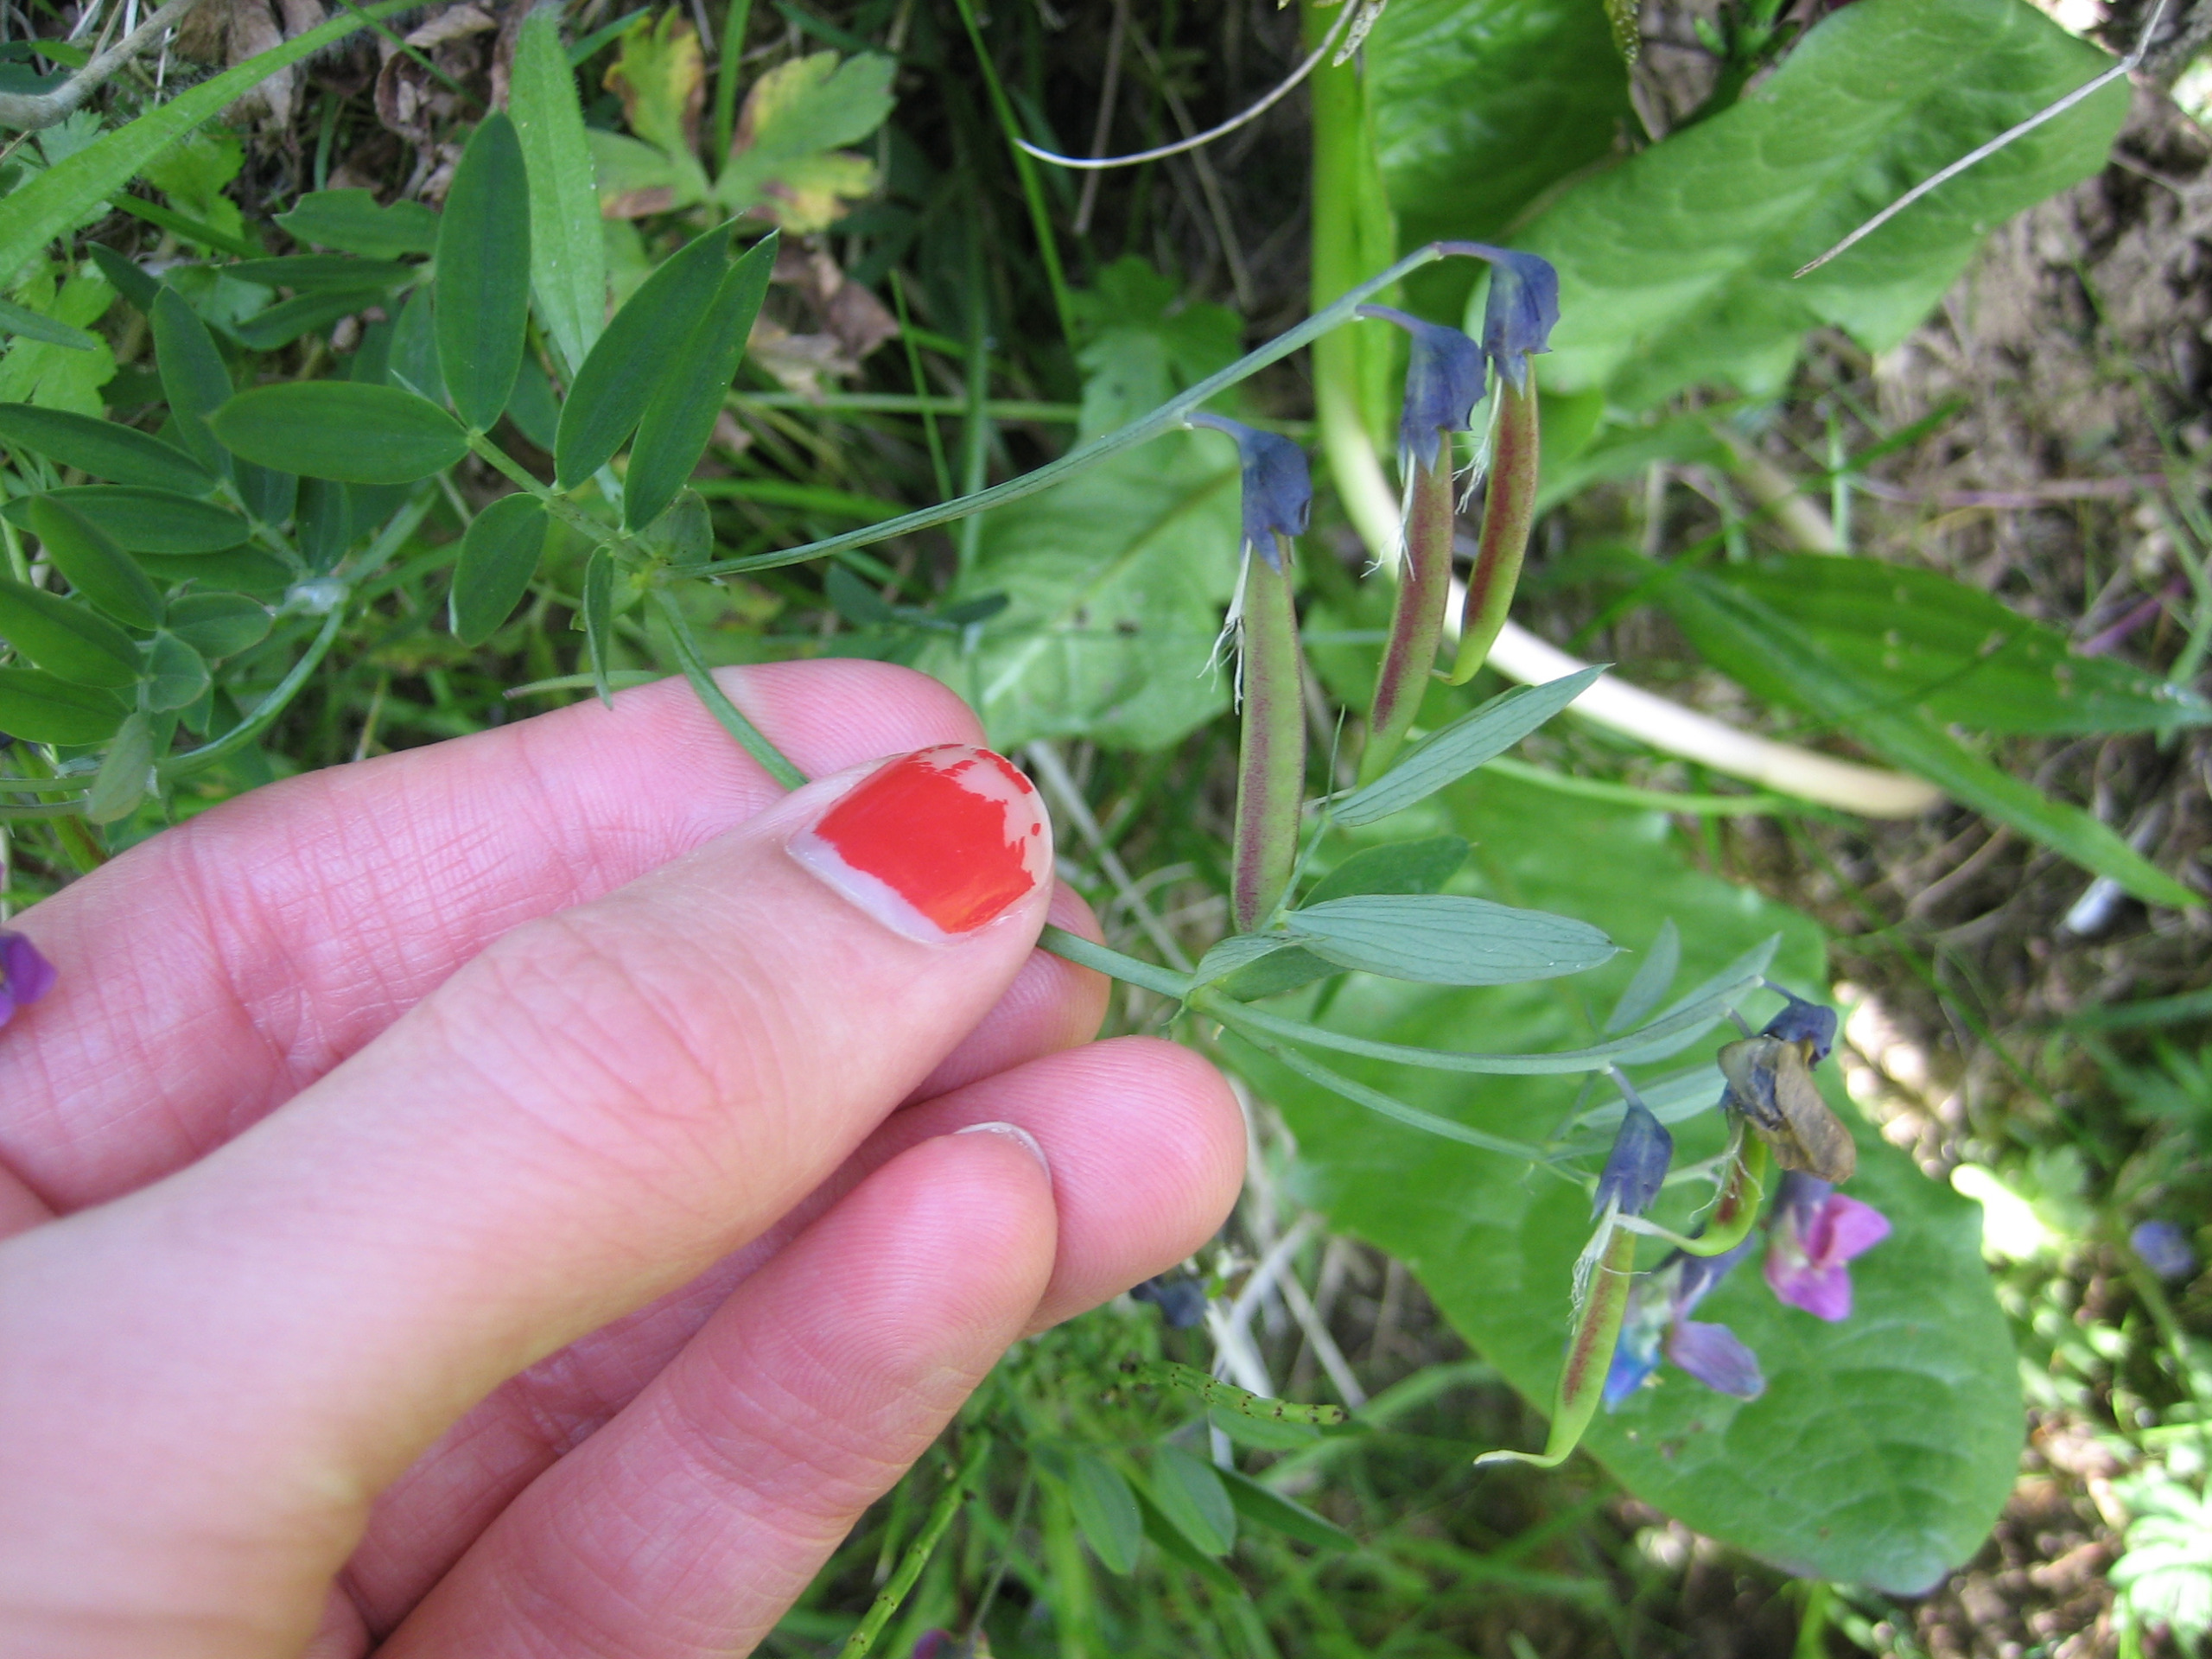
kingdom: Plantae
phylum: Tracheophyta
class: Magnoliopsida
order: Fabales
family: Fabaceae
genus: Lathyrus
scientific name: Lathyrus linifolius
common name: Krat-fladbælg
